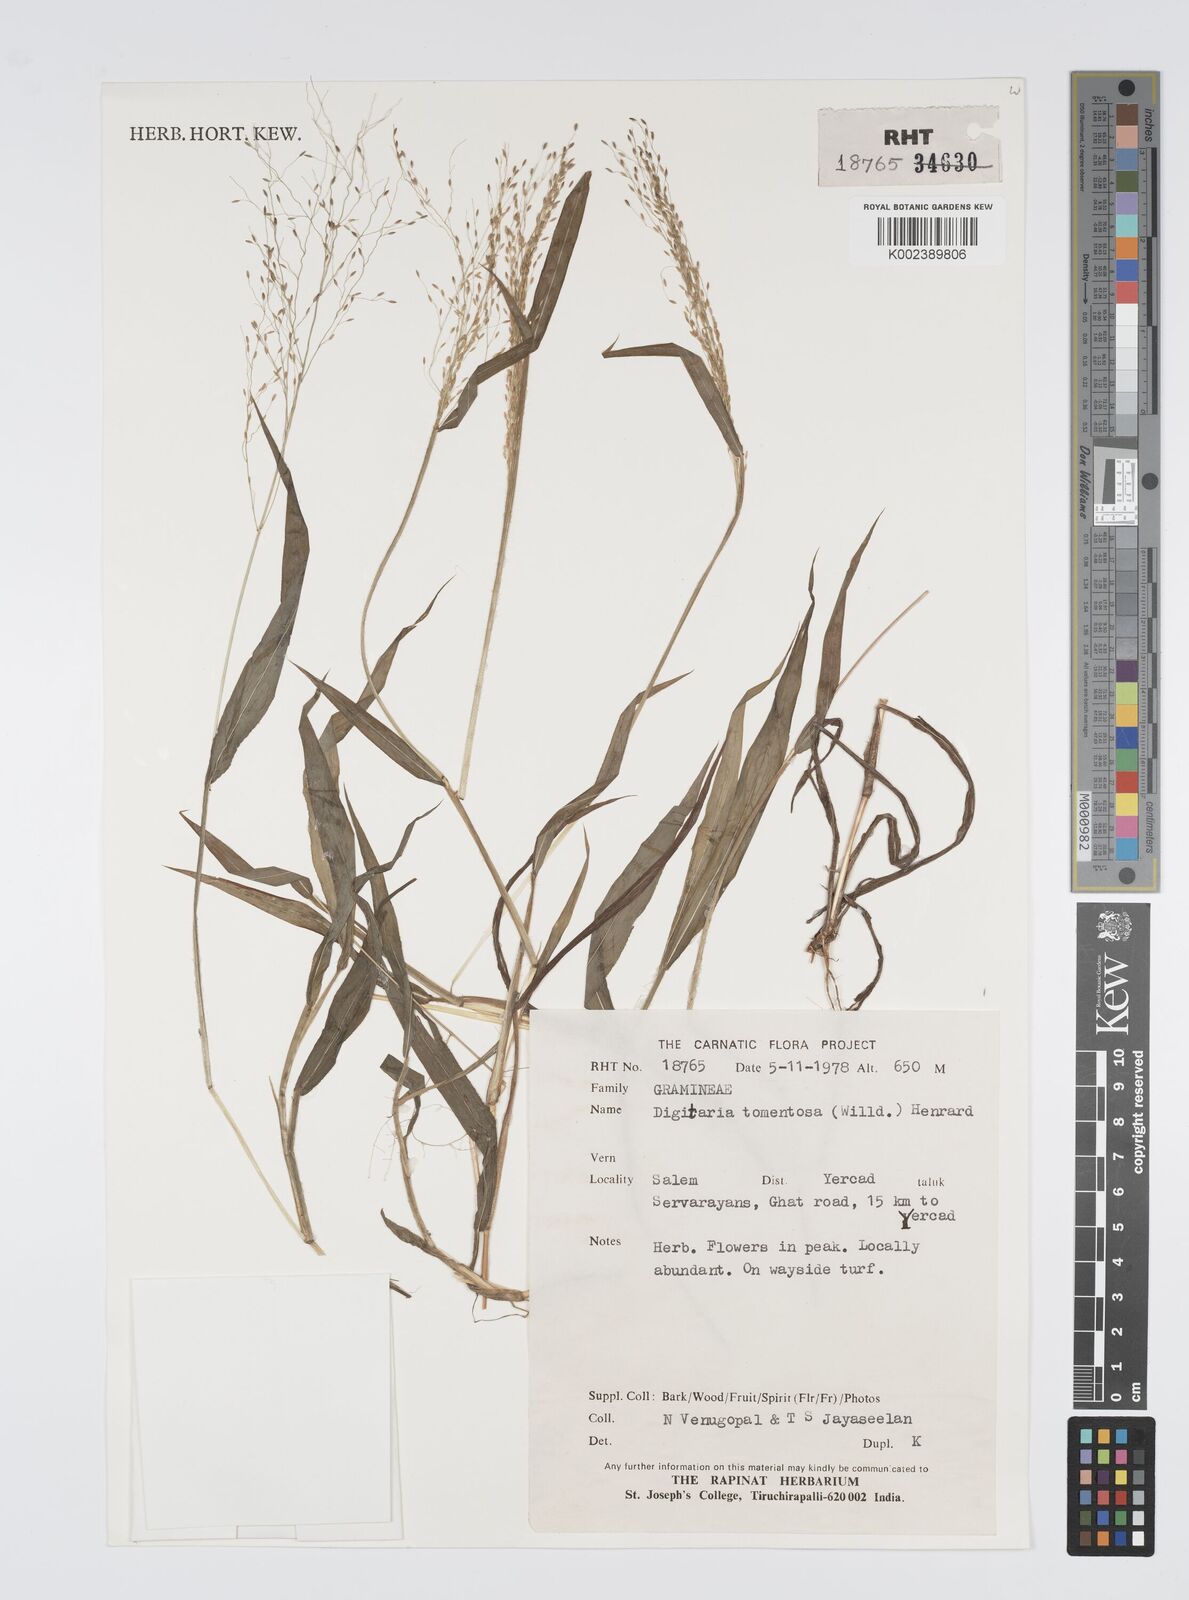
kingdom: Plantae
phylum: Tracheophyta
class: Liliopsida
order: Poales
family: Poaceae
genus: Digitaria
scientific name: Digitaria tomentosa
